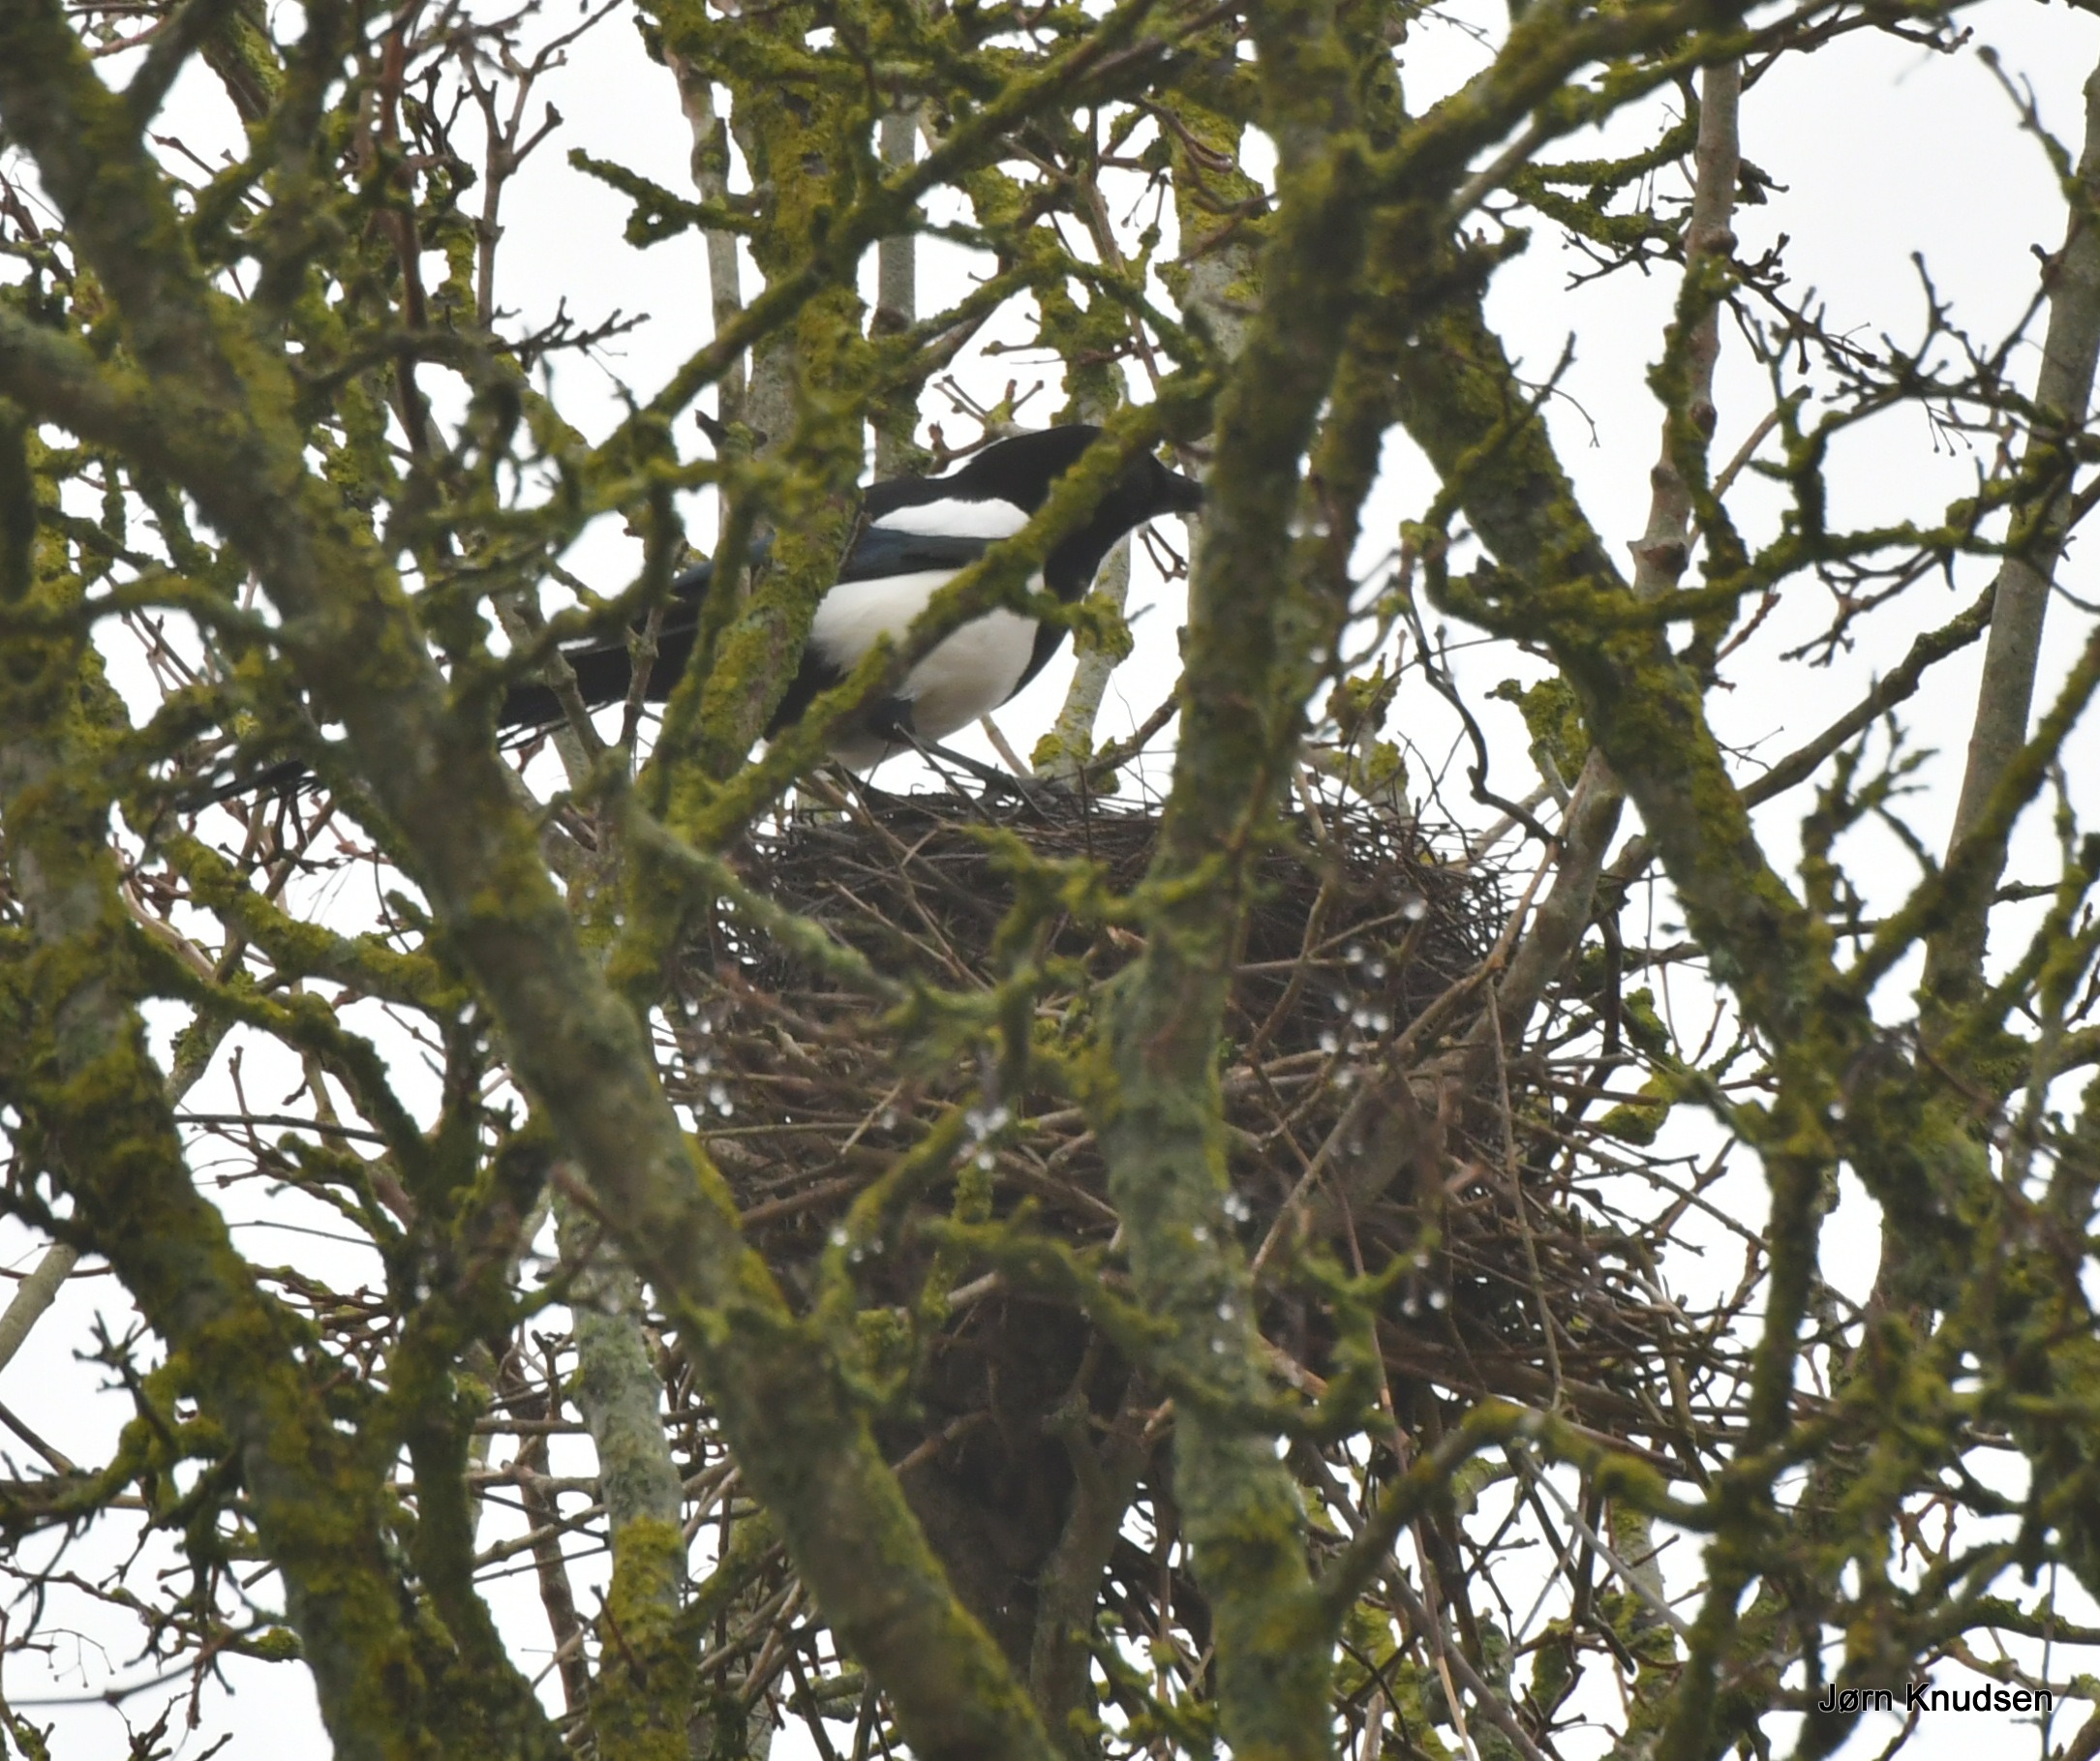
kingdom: Animalia
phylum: Chordata
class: Aves
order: Passeriformes
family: Corvidae
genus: Pica
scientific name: Pica pica
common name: Husskade
